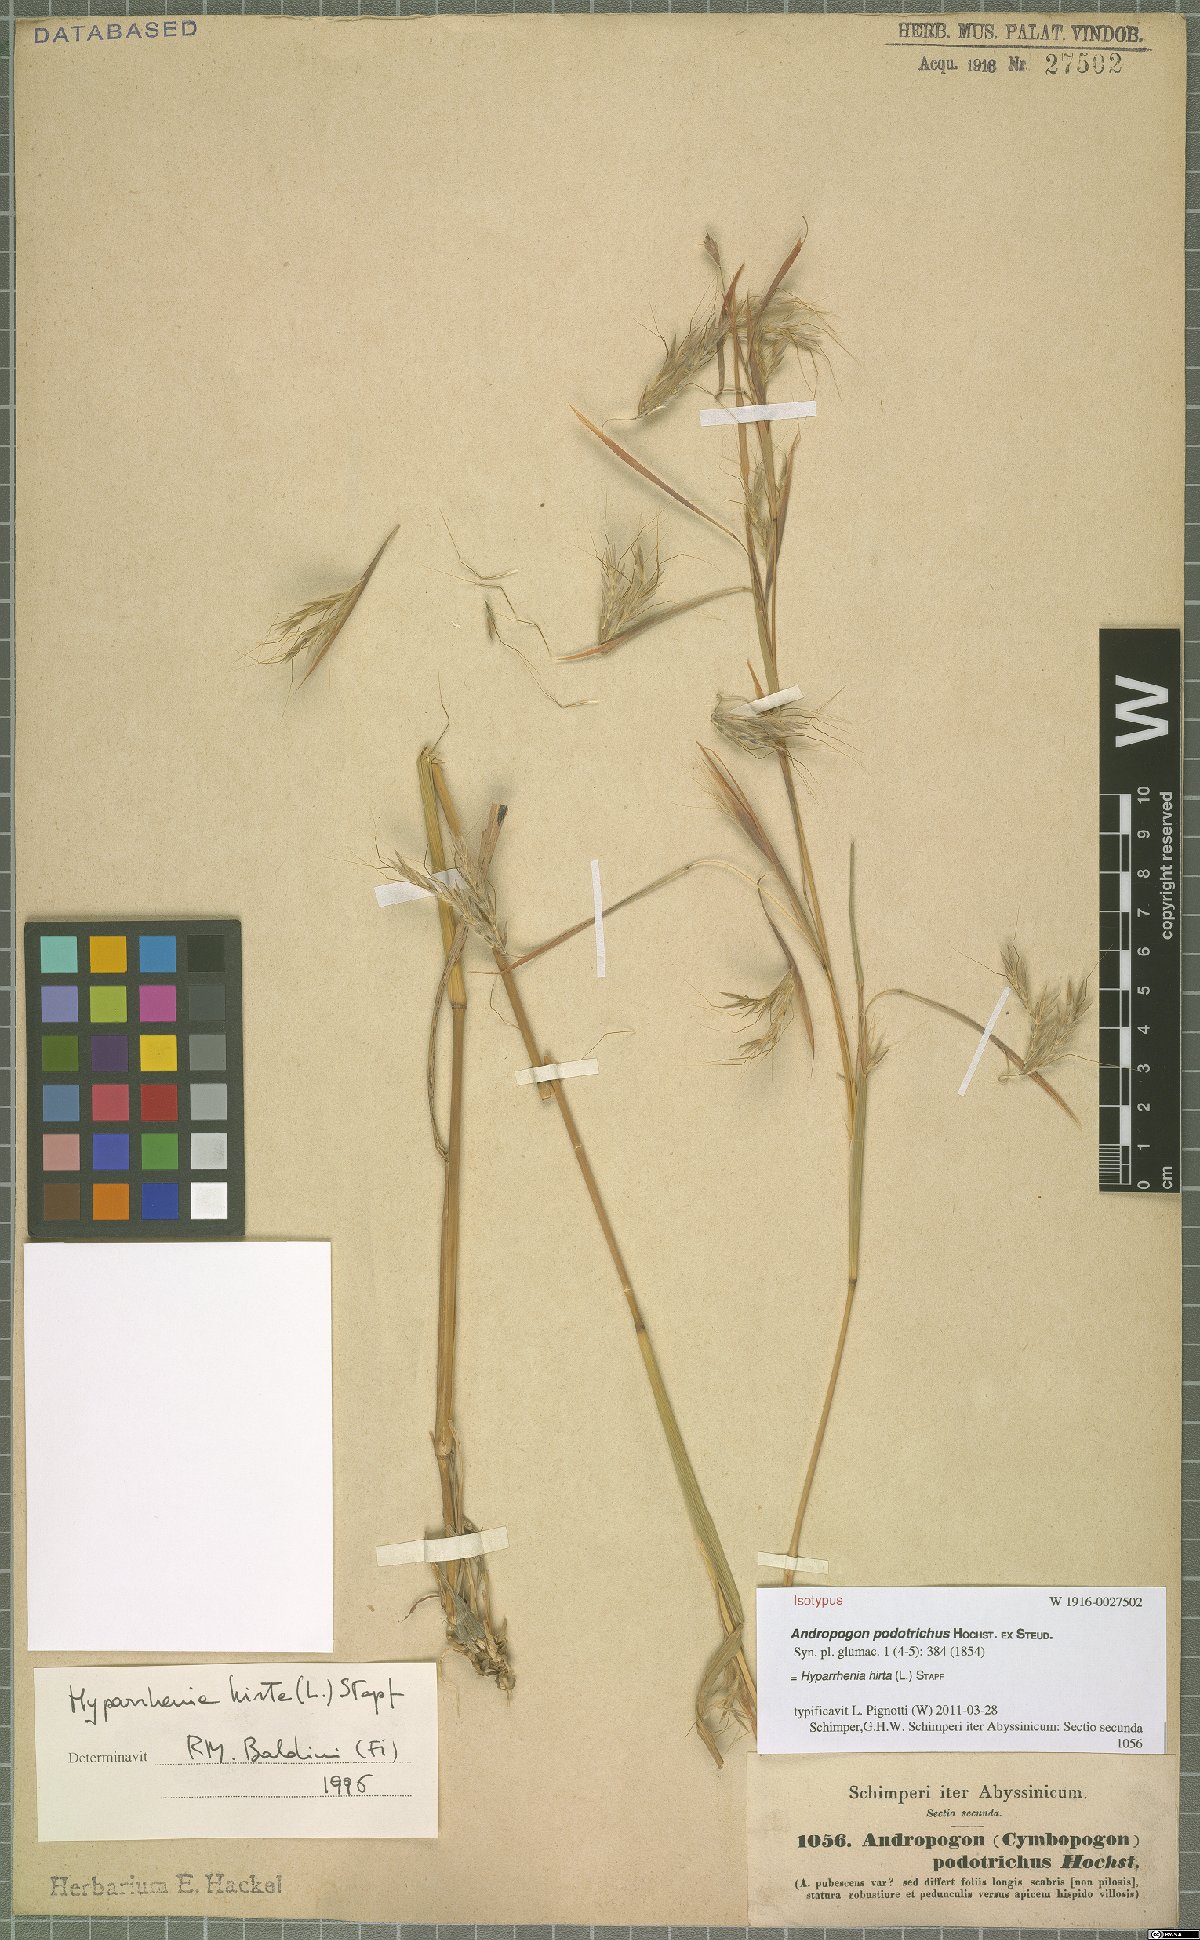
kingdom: Plantae
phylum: Tracheophyta
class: Liliopsida
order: Poales
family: Poaceae
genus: Hyparrhenia
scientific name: Hyparrhenia hirta
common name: Thatching grass
